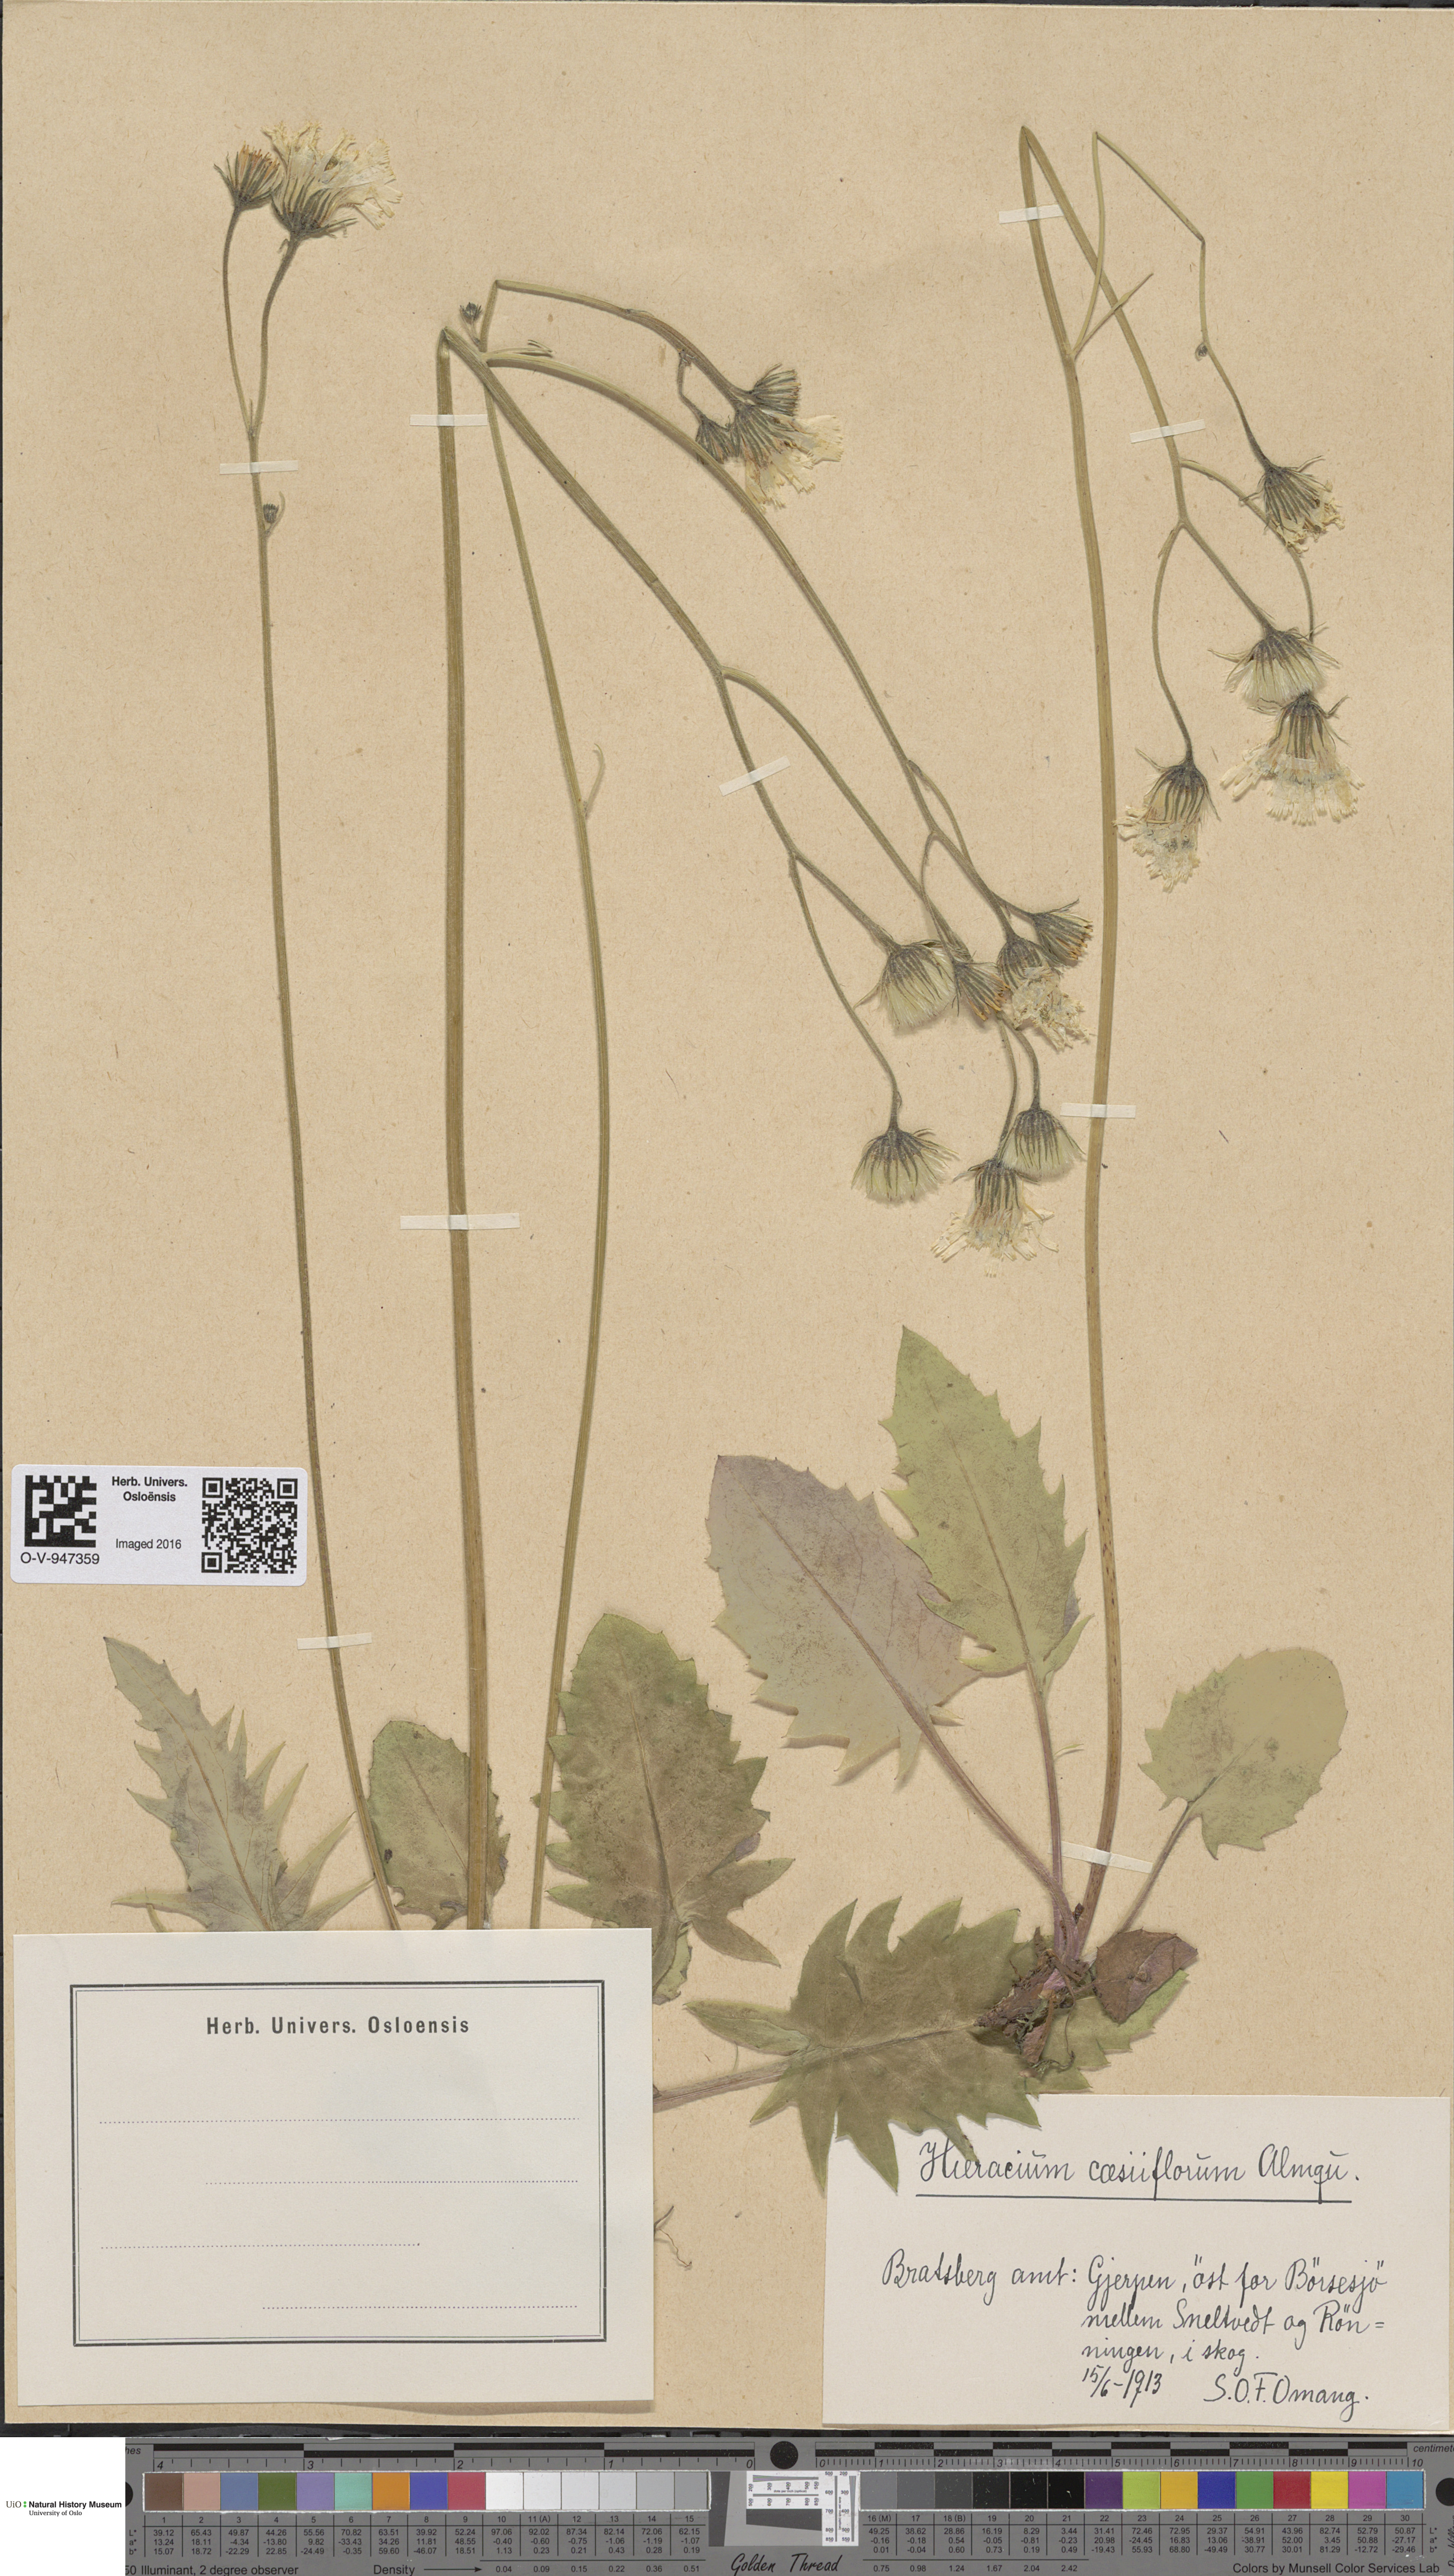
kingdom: Plantae
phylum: Tracheophyta
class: Magnoliopsida
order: Asterales
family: Asteraceae
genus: Hieracium
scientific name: Hieracium bifidum
